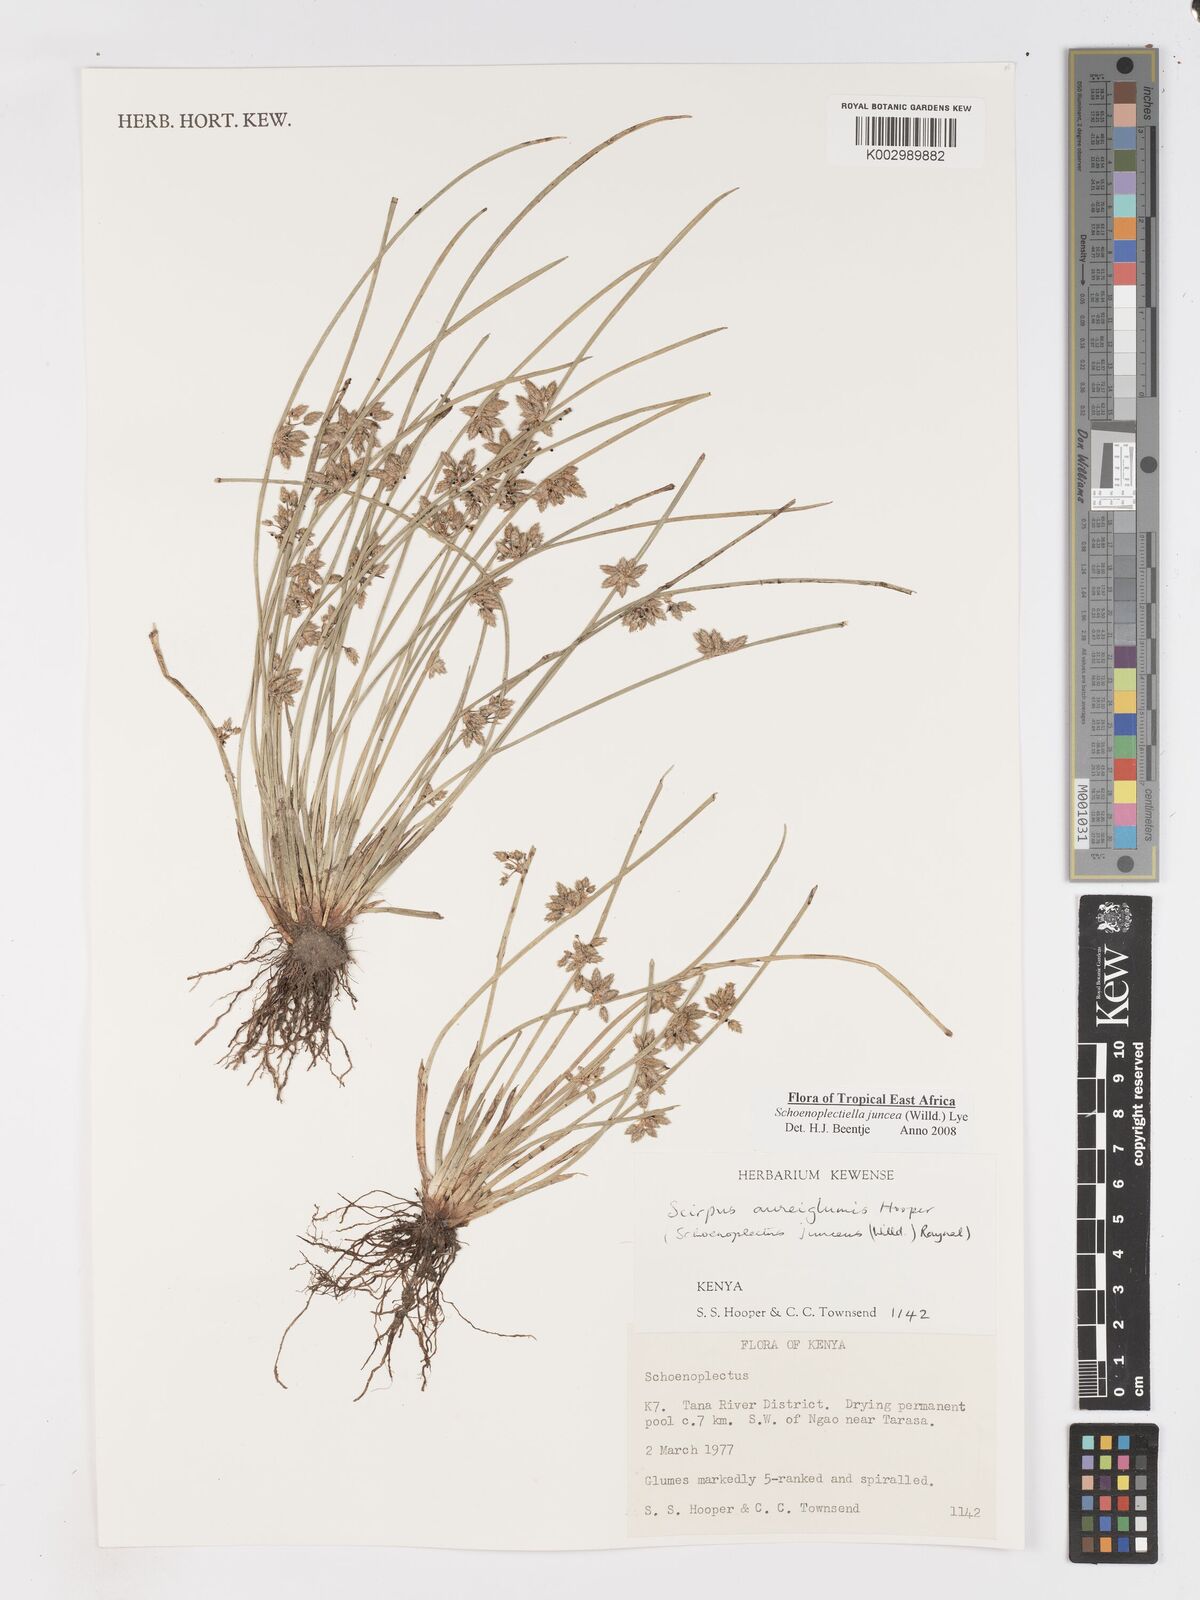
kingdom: Plantae
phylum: Tracheophyta
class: Liliopsida
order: Poales
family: Cyperaceae
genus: Schoenoplectiella
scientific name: Schoenoplectiella juncea
